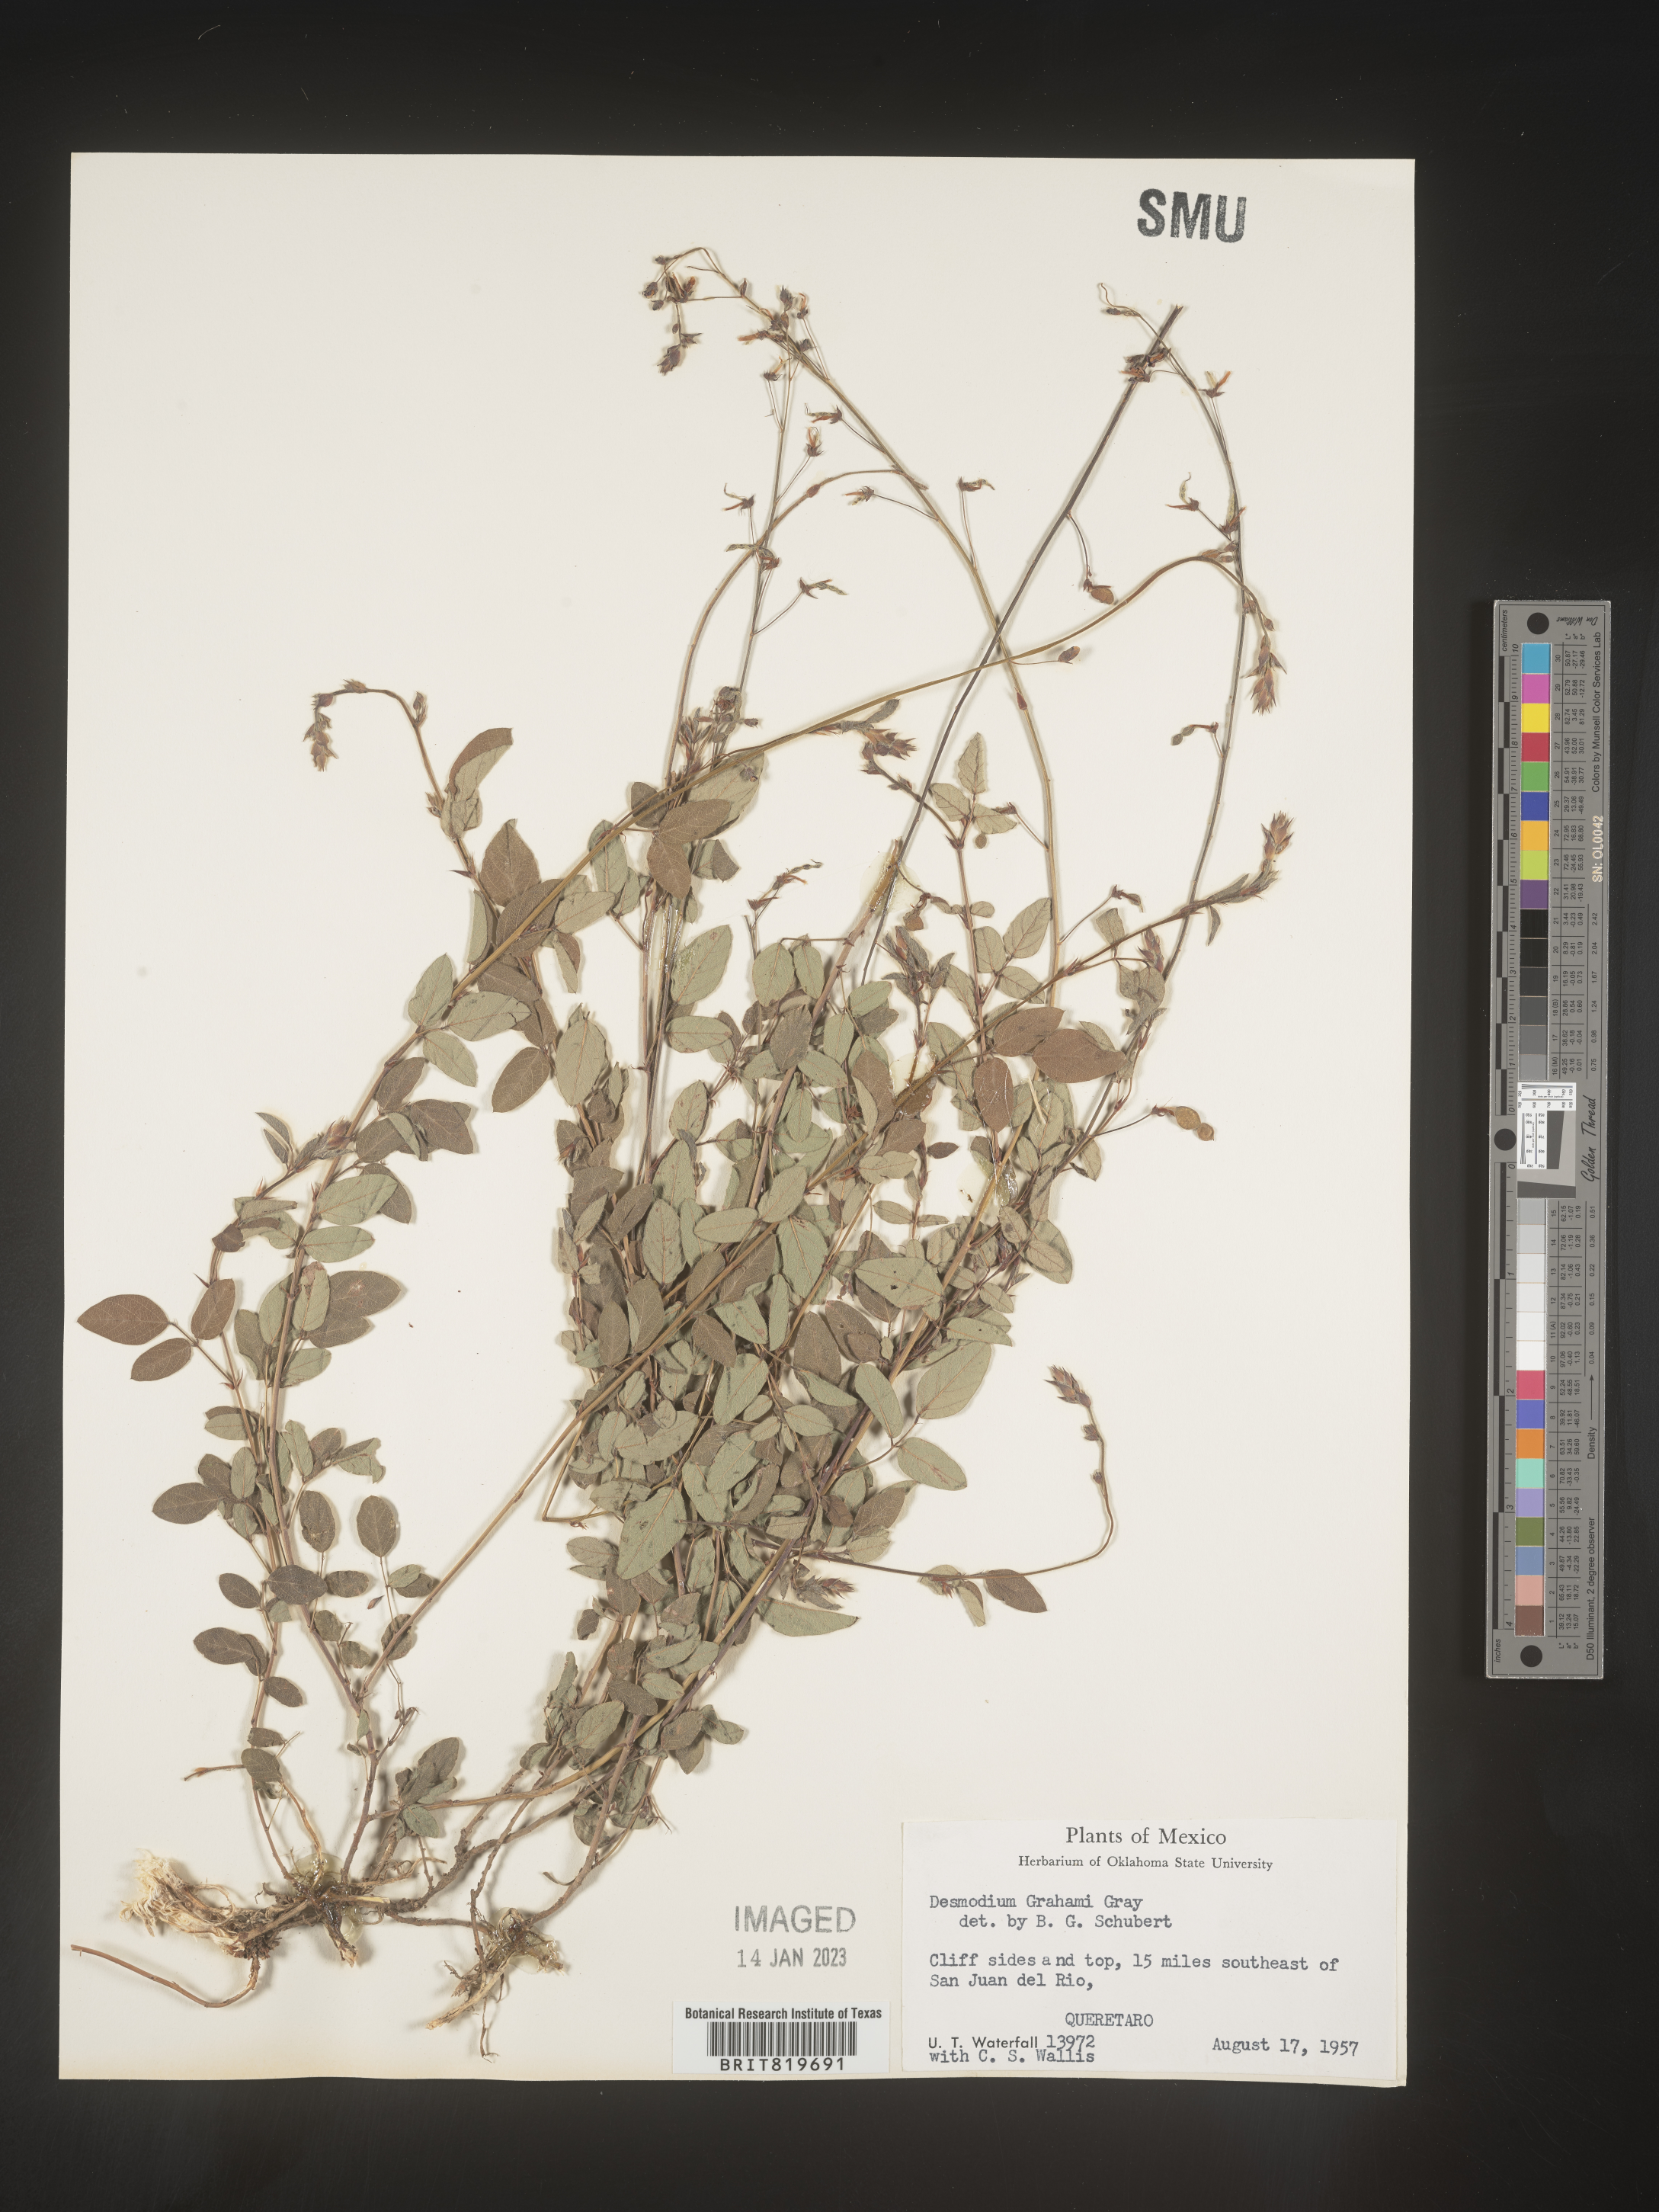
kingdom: Plantae
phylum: Tracheophyta
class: Magnoliopsida
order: Fabales
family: Fabaceae
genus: Desmodium
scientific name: Desmodium
